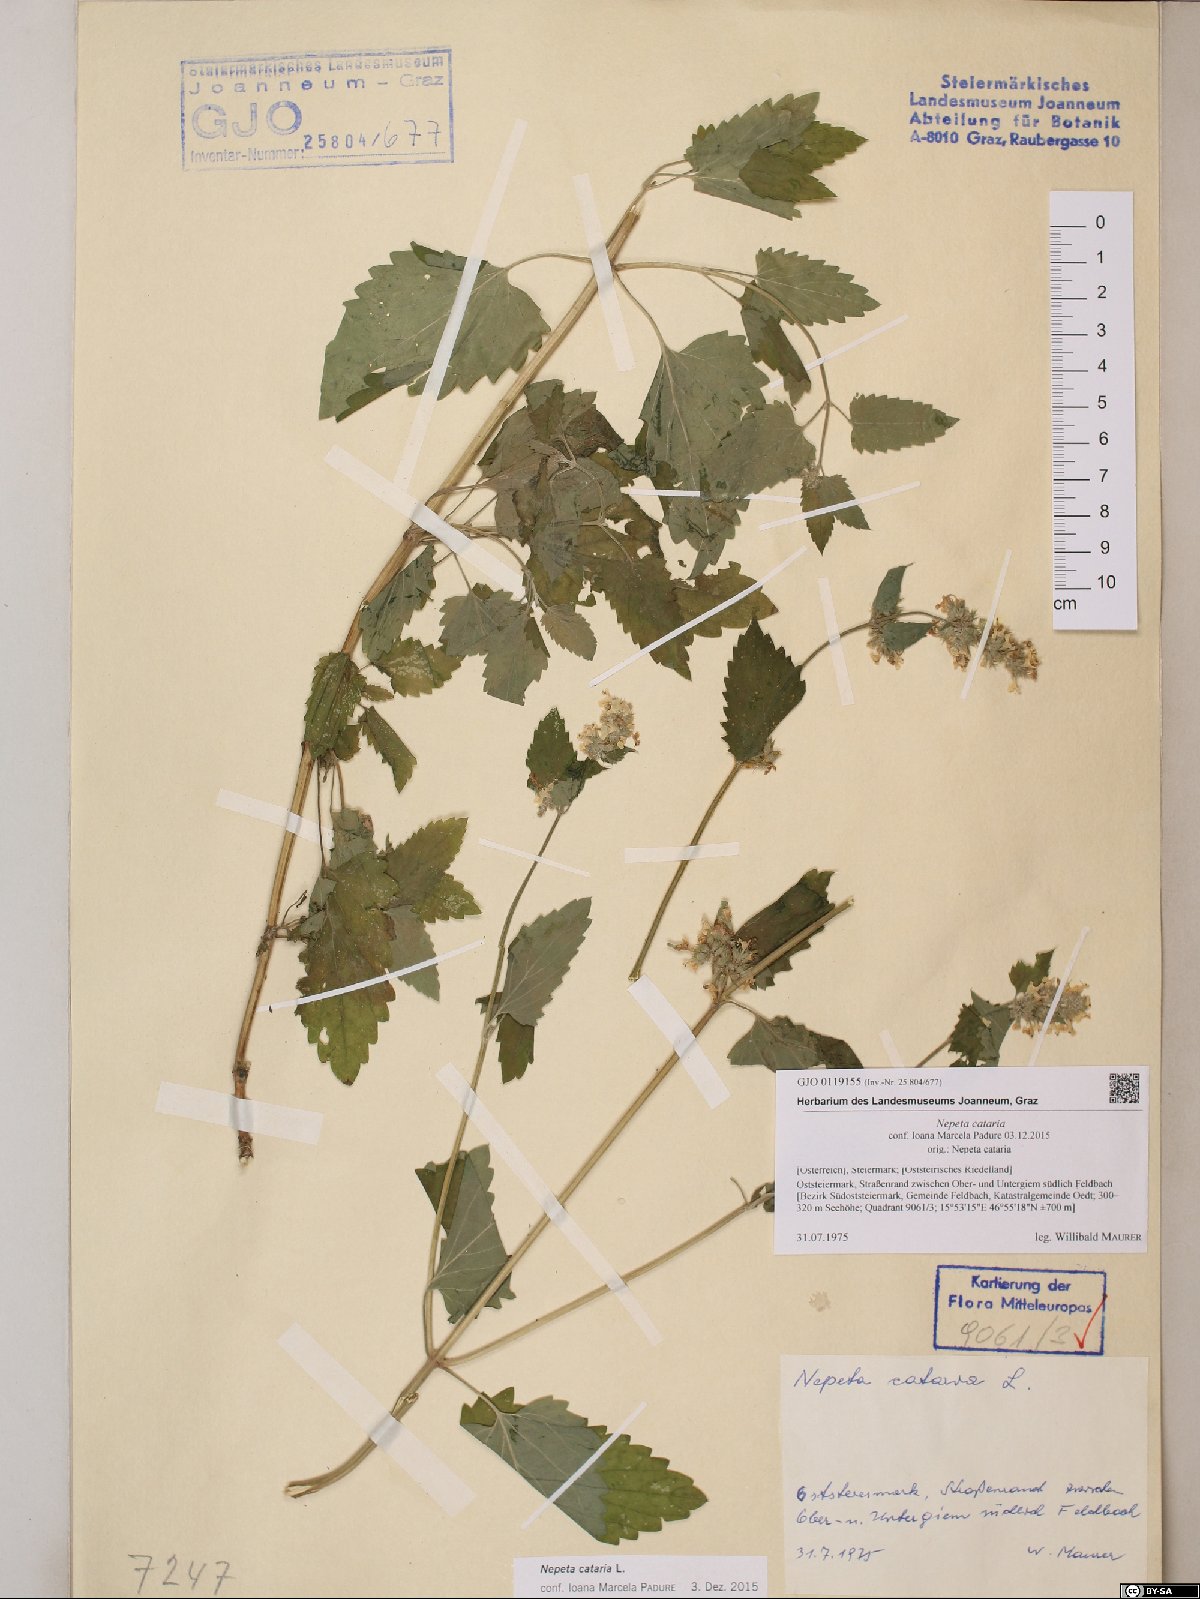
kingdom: Plantae
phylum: Tracheophyta
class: Magnoliopsida
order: Lamiales
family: Lamiaceae
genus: Nepeta
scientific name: Nepeta cataria
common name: Catnip
